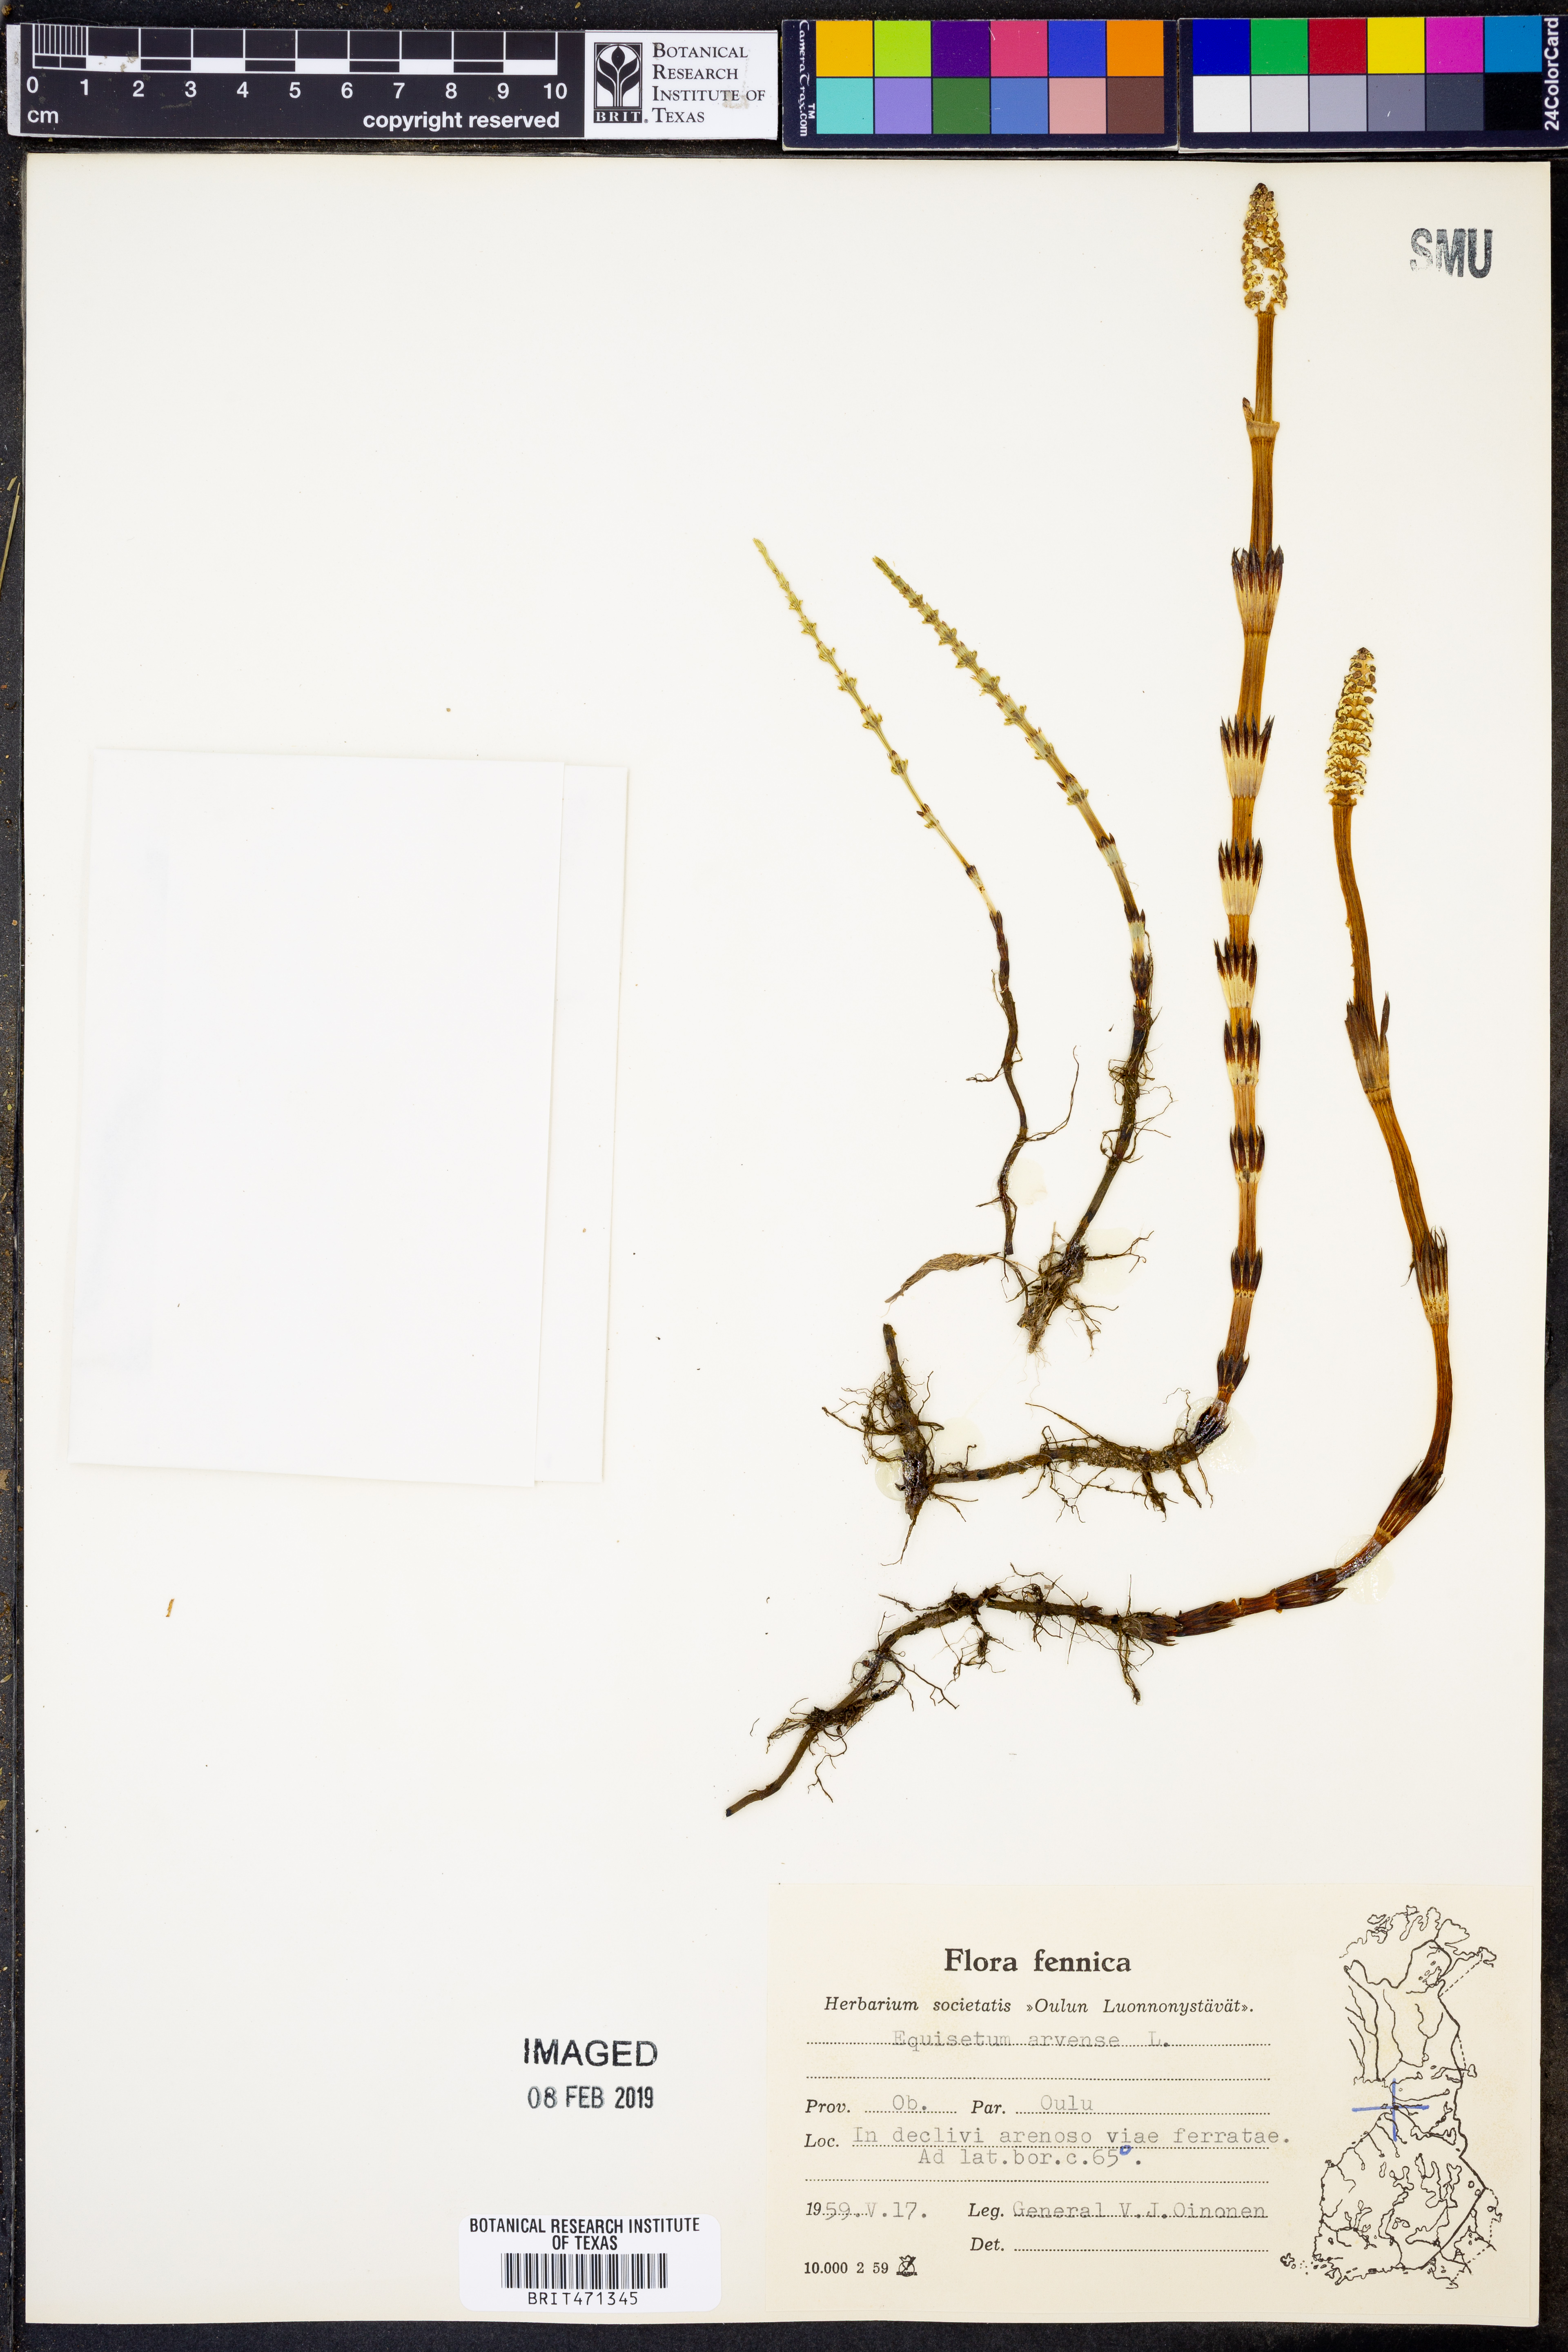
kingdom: Plantae
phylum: Tracheophyta
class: Polypodiopsida
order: Equisetales
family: Equisetaceae
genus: Equisetum
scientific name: Equisetum arvense
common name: Field horsetail
